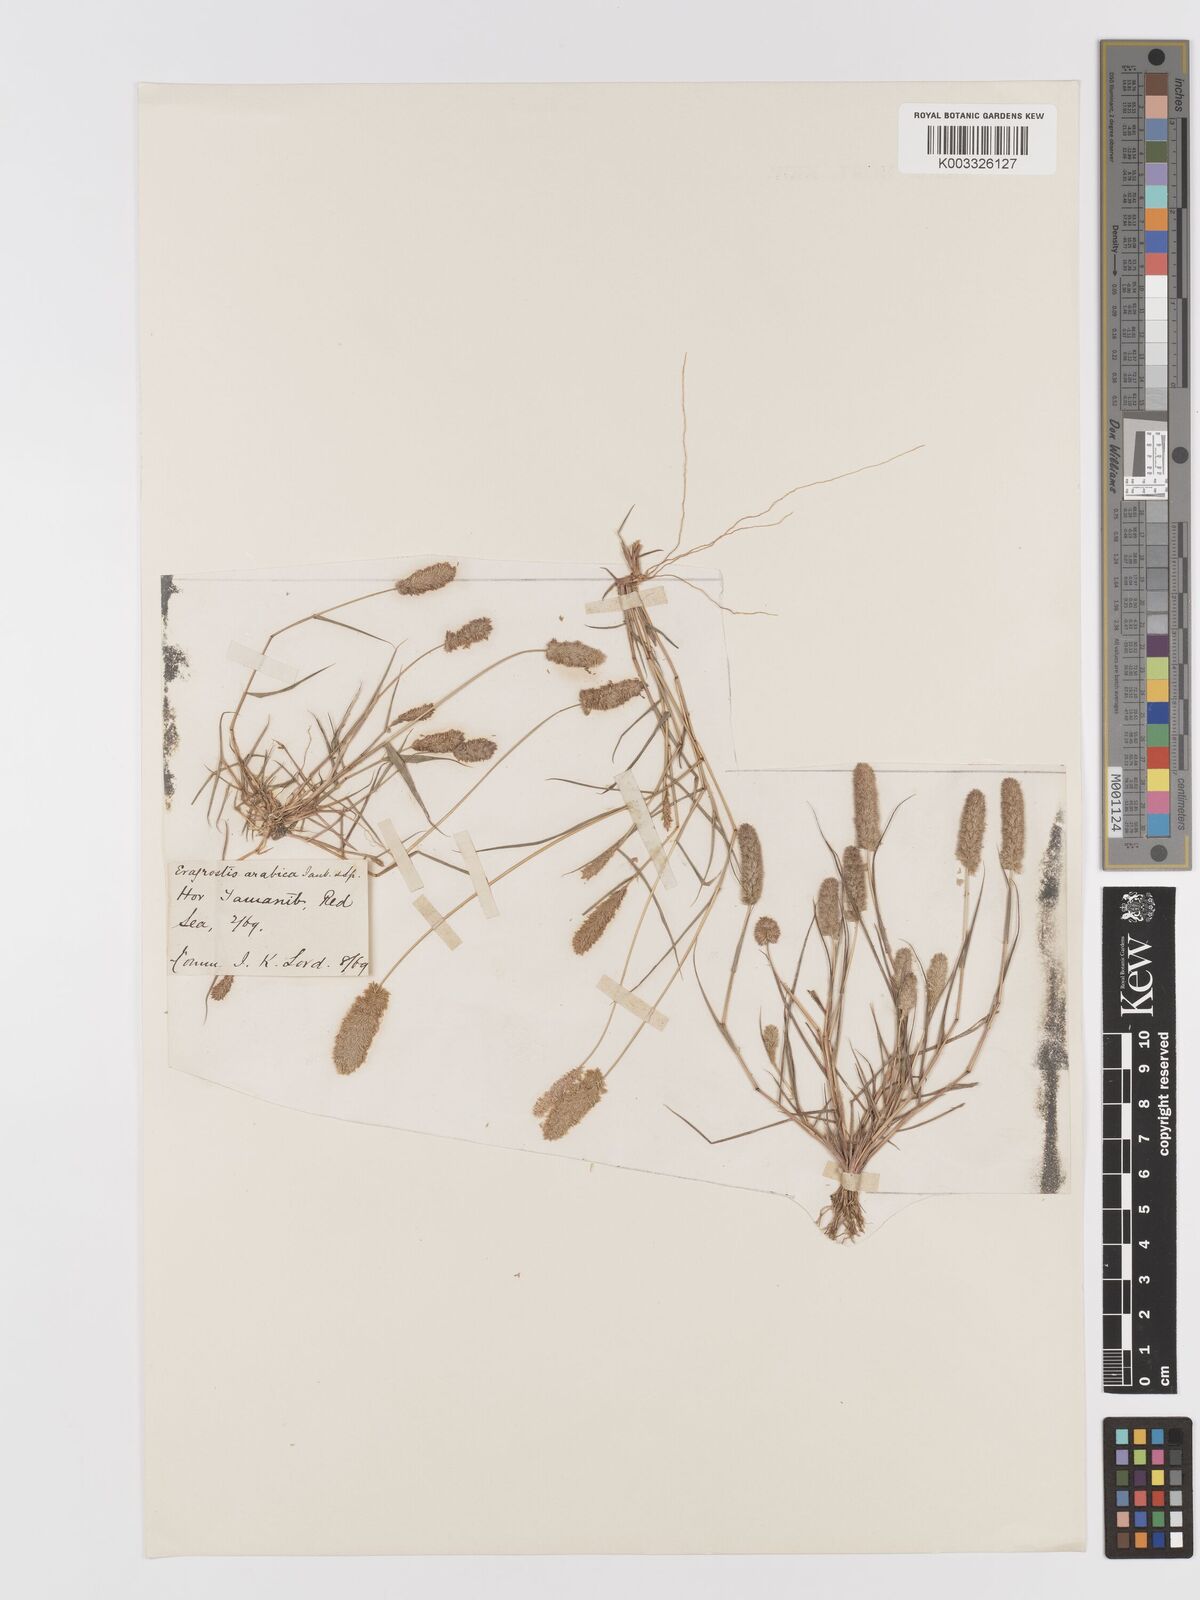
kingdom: Plantae
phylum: Tracheophyta
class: Liliopsida
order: Poales
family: Poaceae
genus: Eragrostis
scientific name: Eragrostis ciliaris
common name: Gophertail lovegrass
